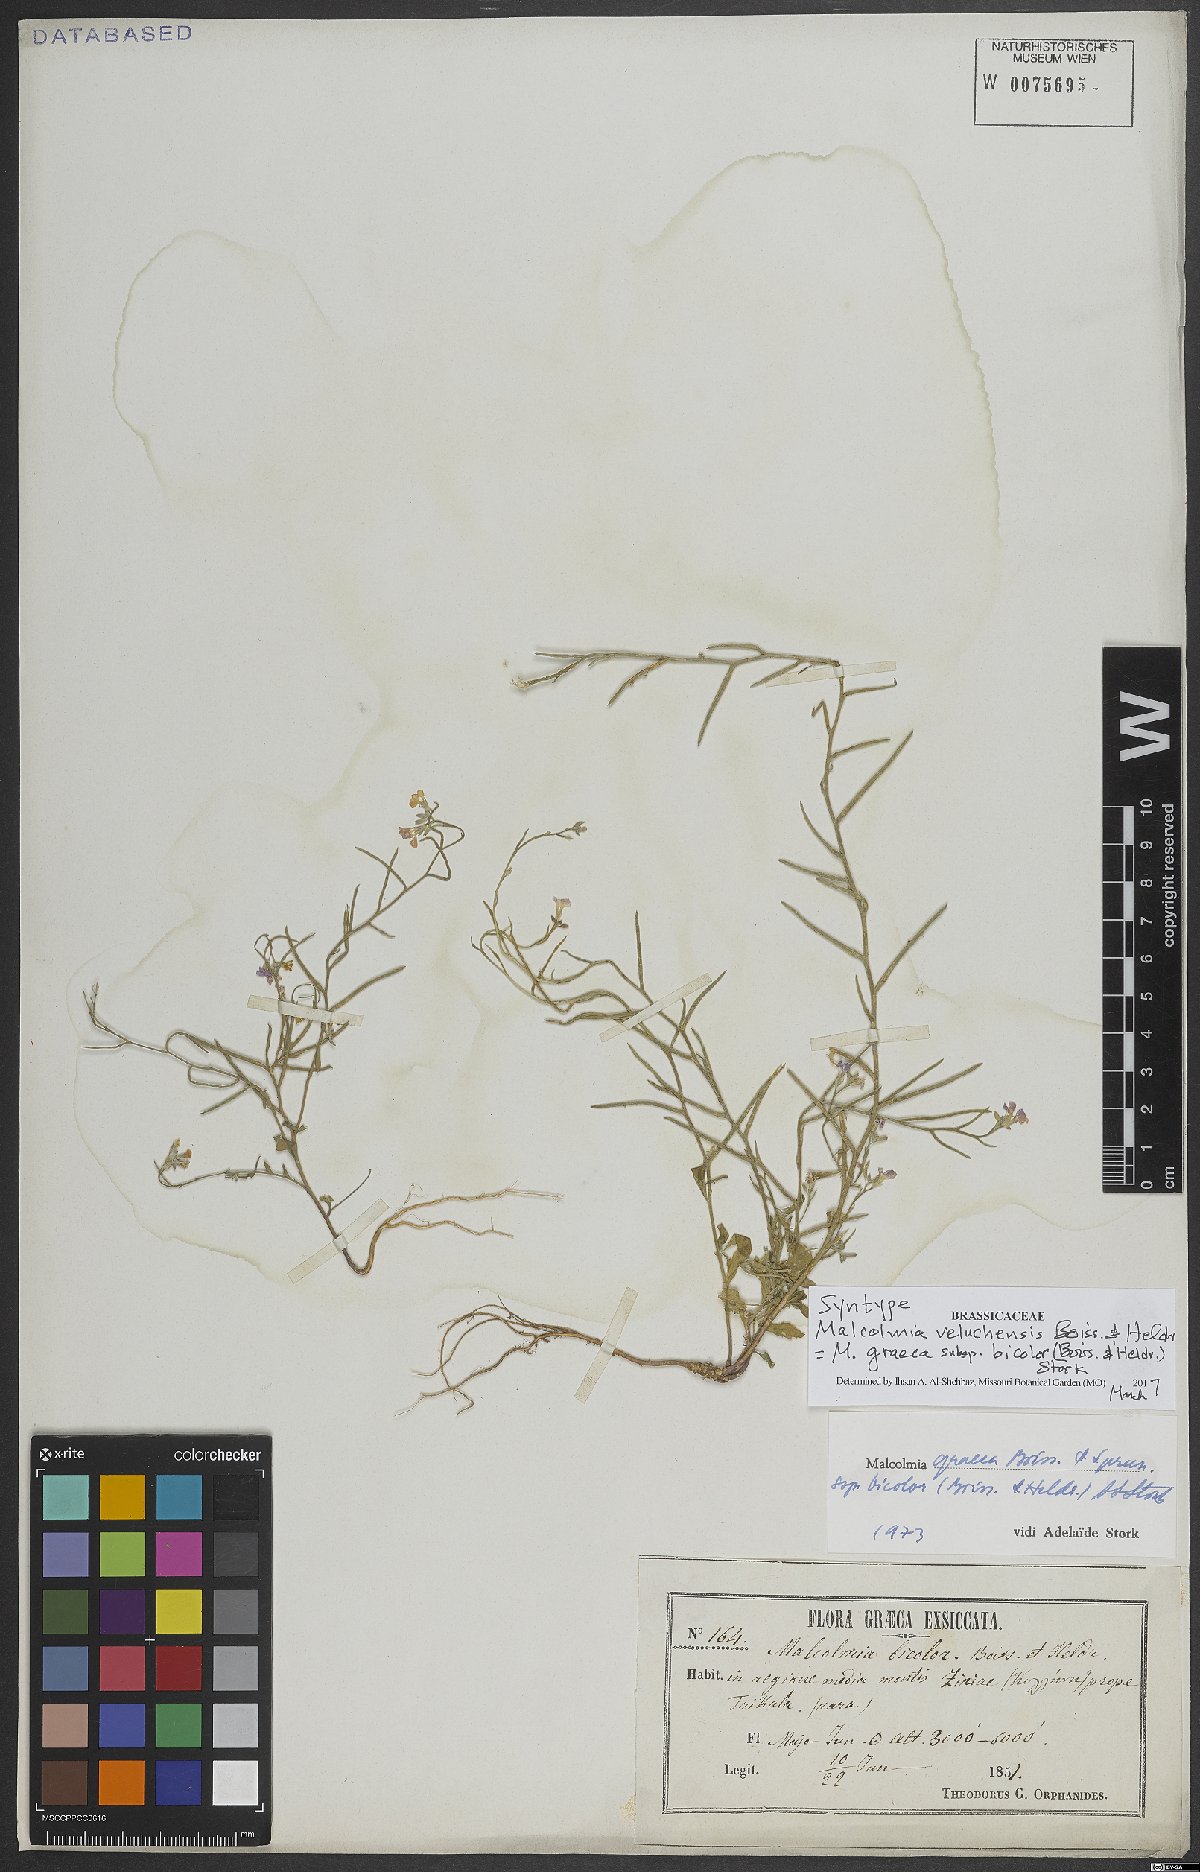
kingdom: Plantae
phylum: Tracheophyta
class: Magnoliopsida
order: Brassicales
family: Brassicaceae
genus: Malcolmia
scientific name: Malcolmia graeca
